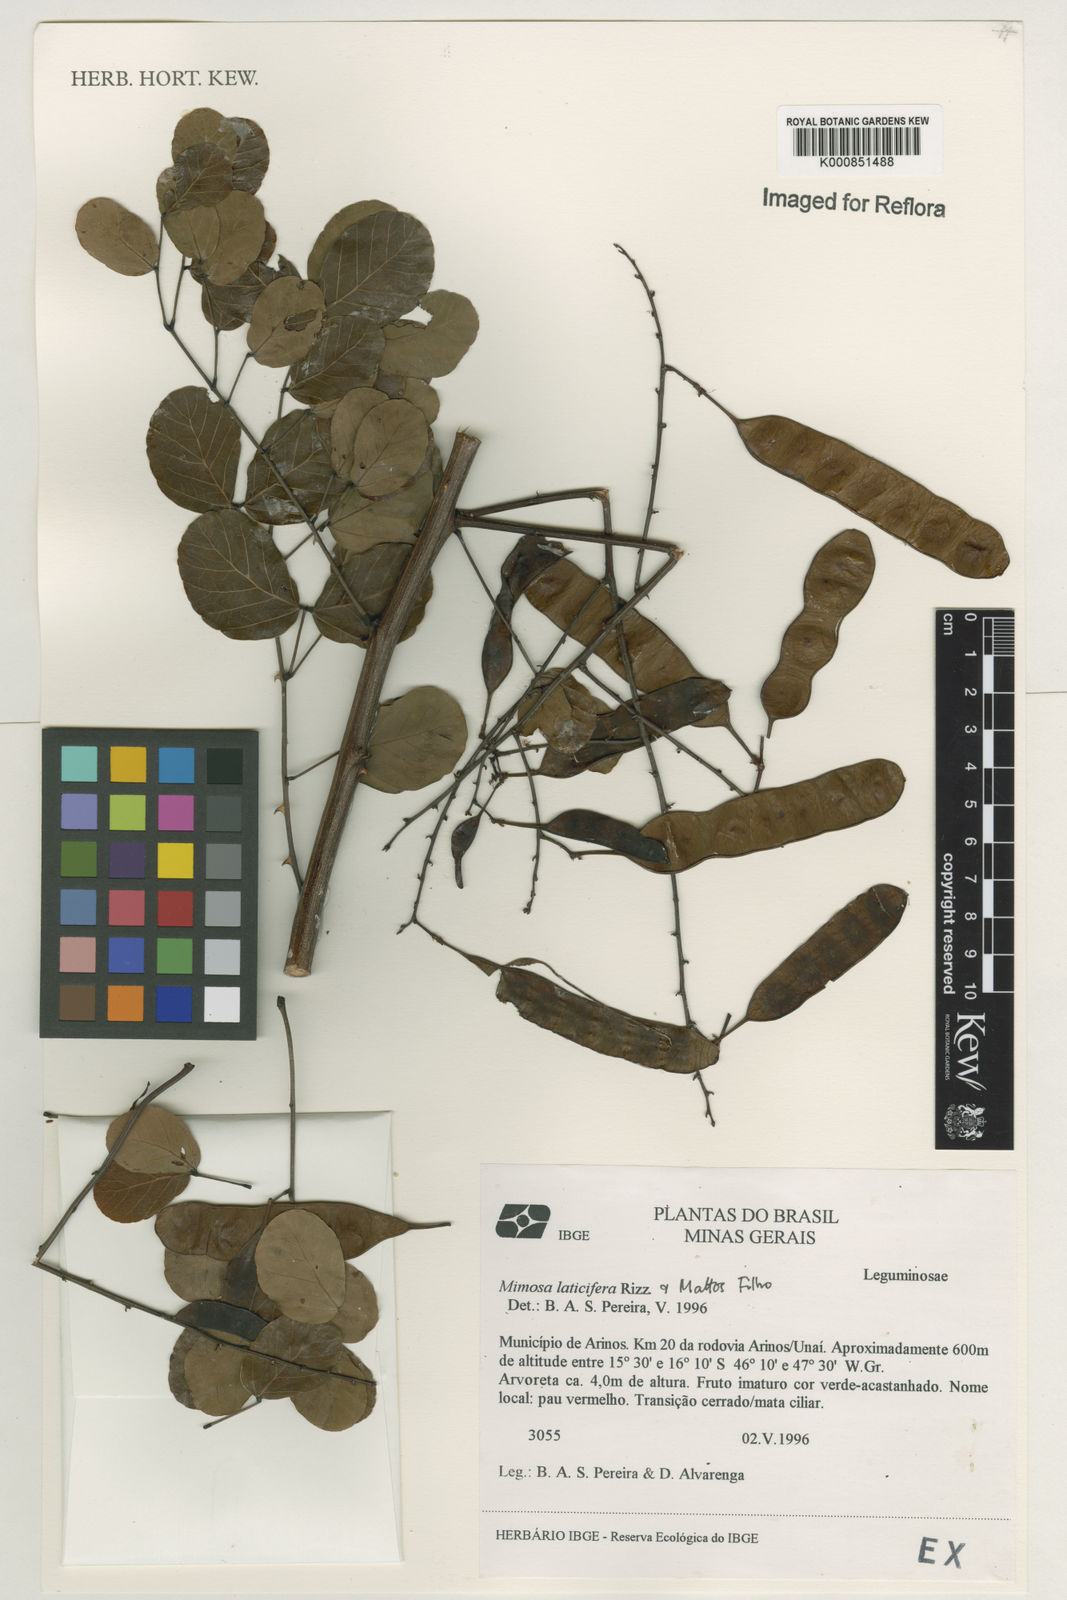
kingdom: Plantae
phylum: Tracheophyta
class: Magnoliopsida
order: Fabales
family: Fabaceae
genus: Mimosa
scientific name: Mimosa laticifera
